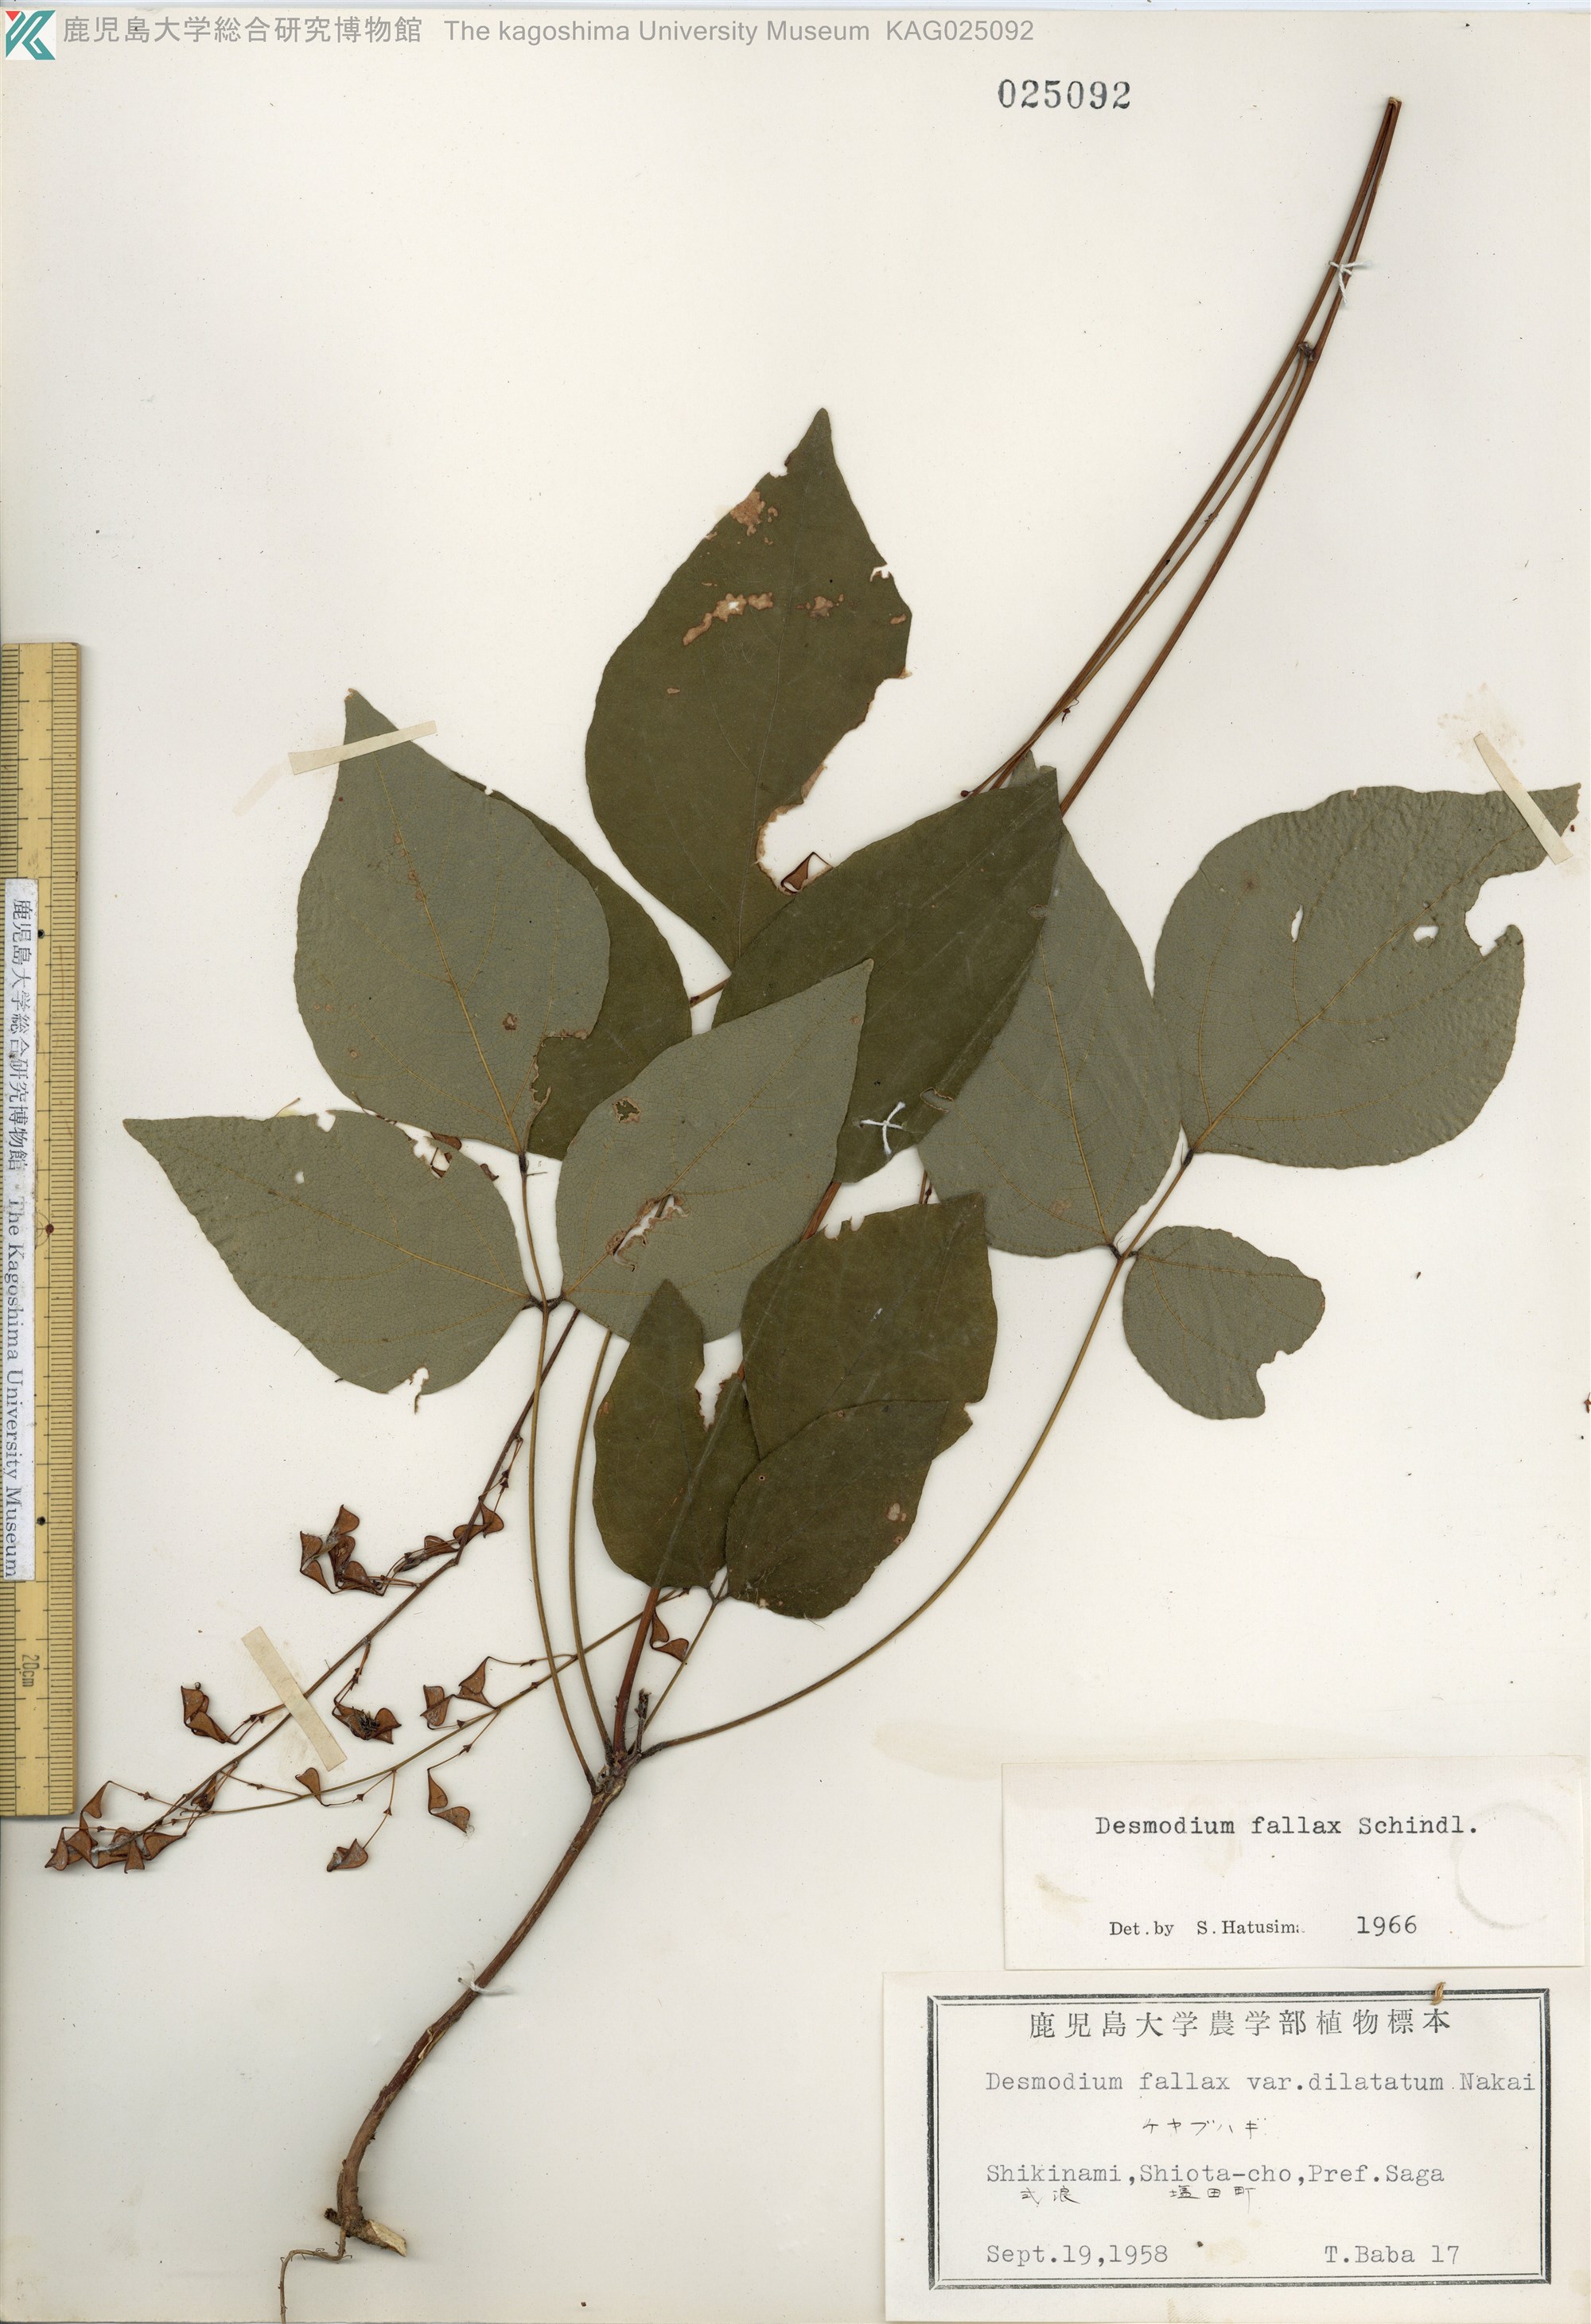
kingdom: Plantae
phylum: Tracheophyta
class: Magnoliopsida
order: Fabales
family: Fabaceae
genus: Hylodesmum
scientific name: Hylodesmum podocarpum
